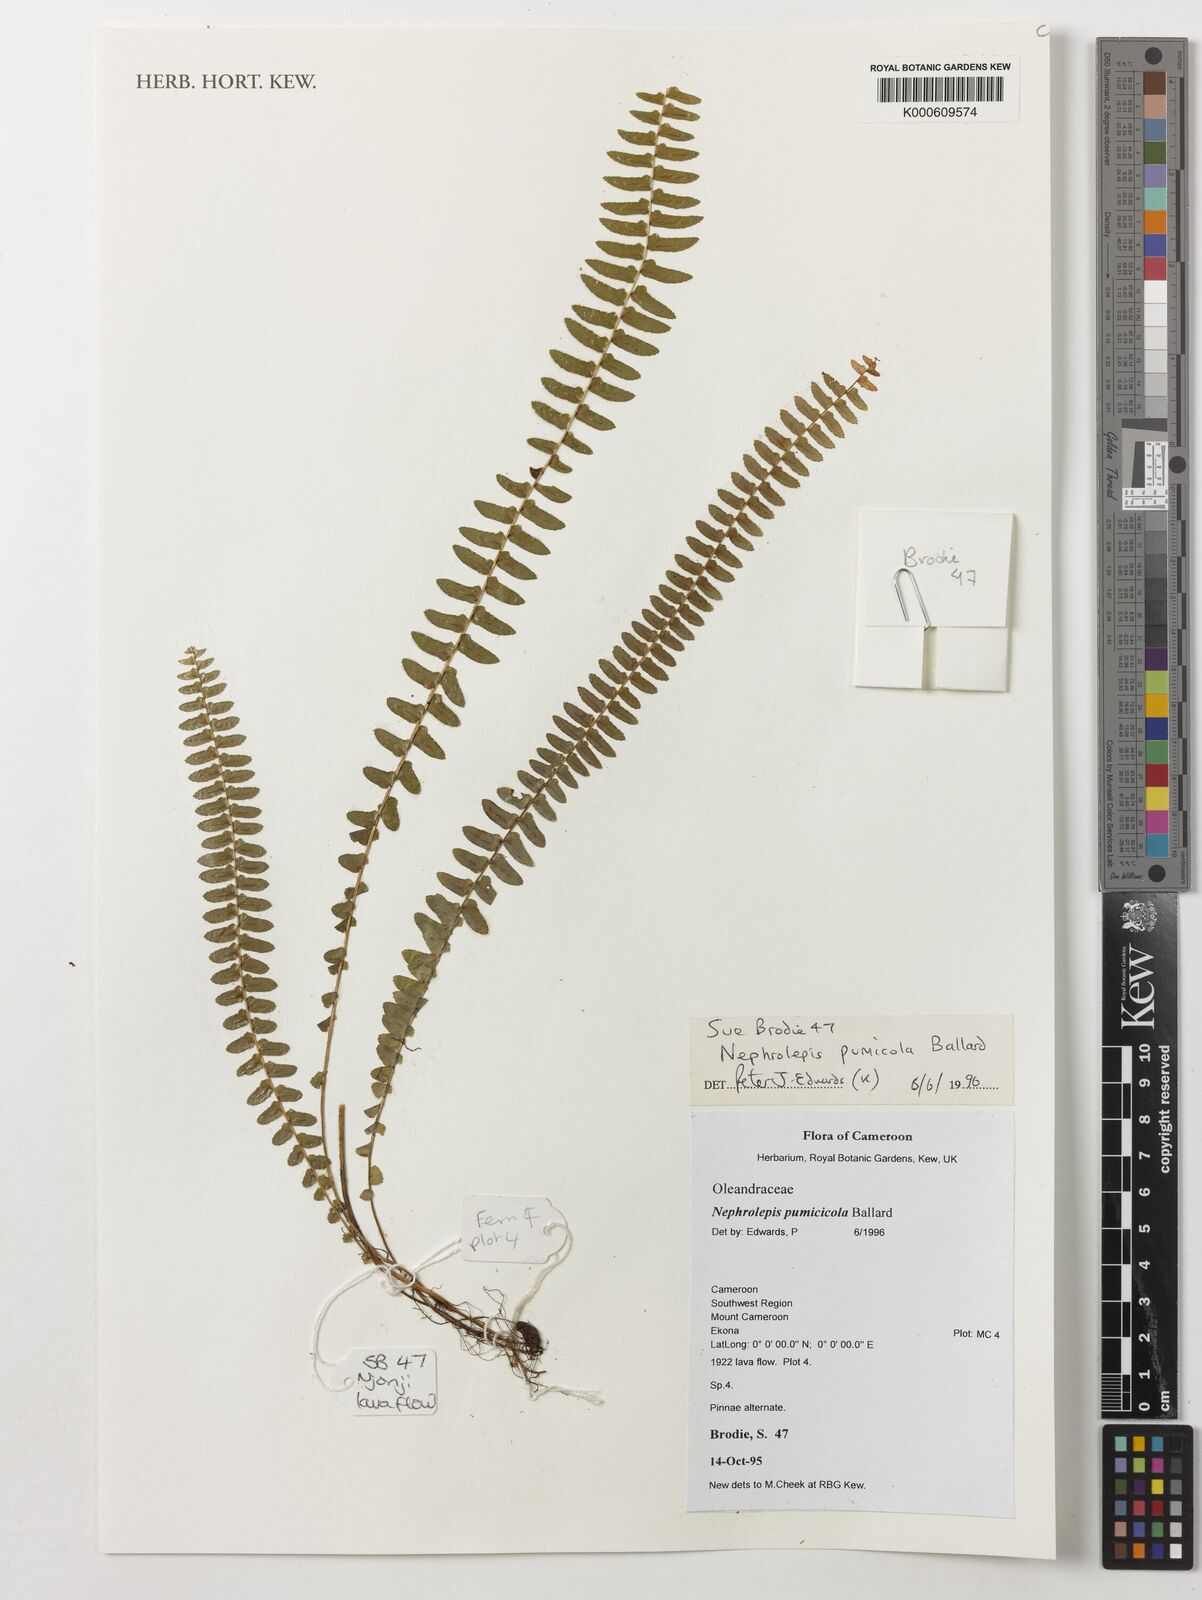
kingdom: Plantae
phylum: Tracheophyta
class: Polypodiopsida
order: Polypodiales
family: Nephrolepidaceae
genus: Nephrolepis
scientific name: Nephrolepis cordifolia
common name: Narrow swordfern
